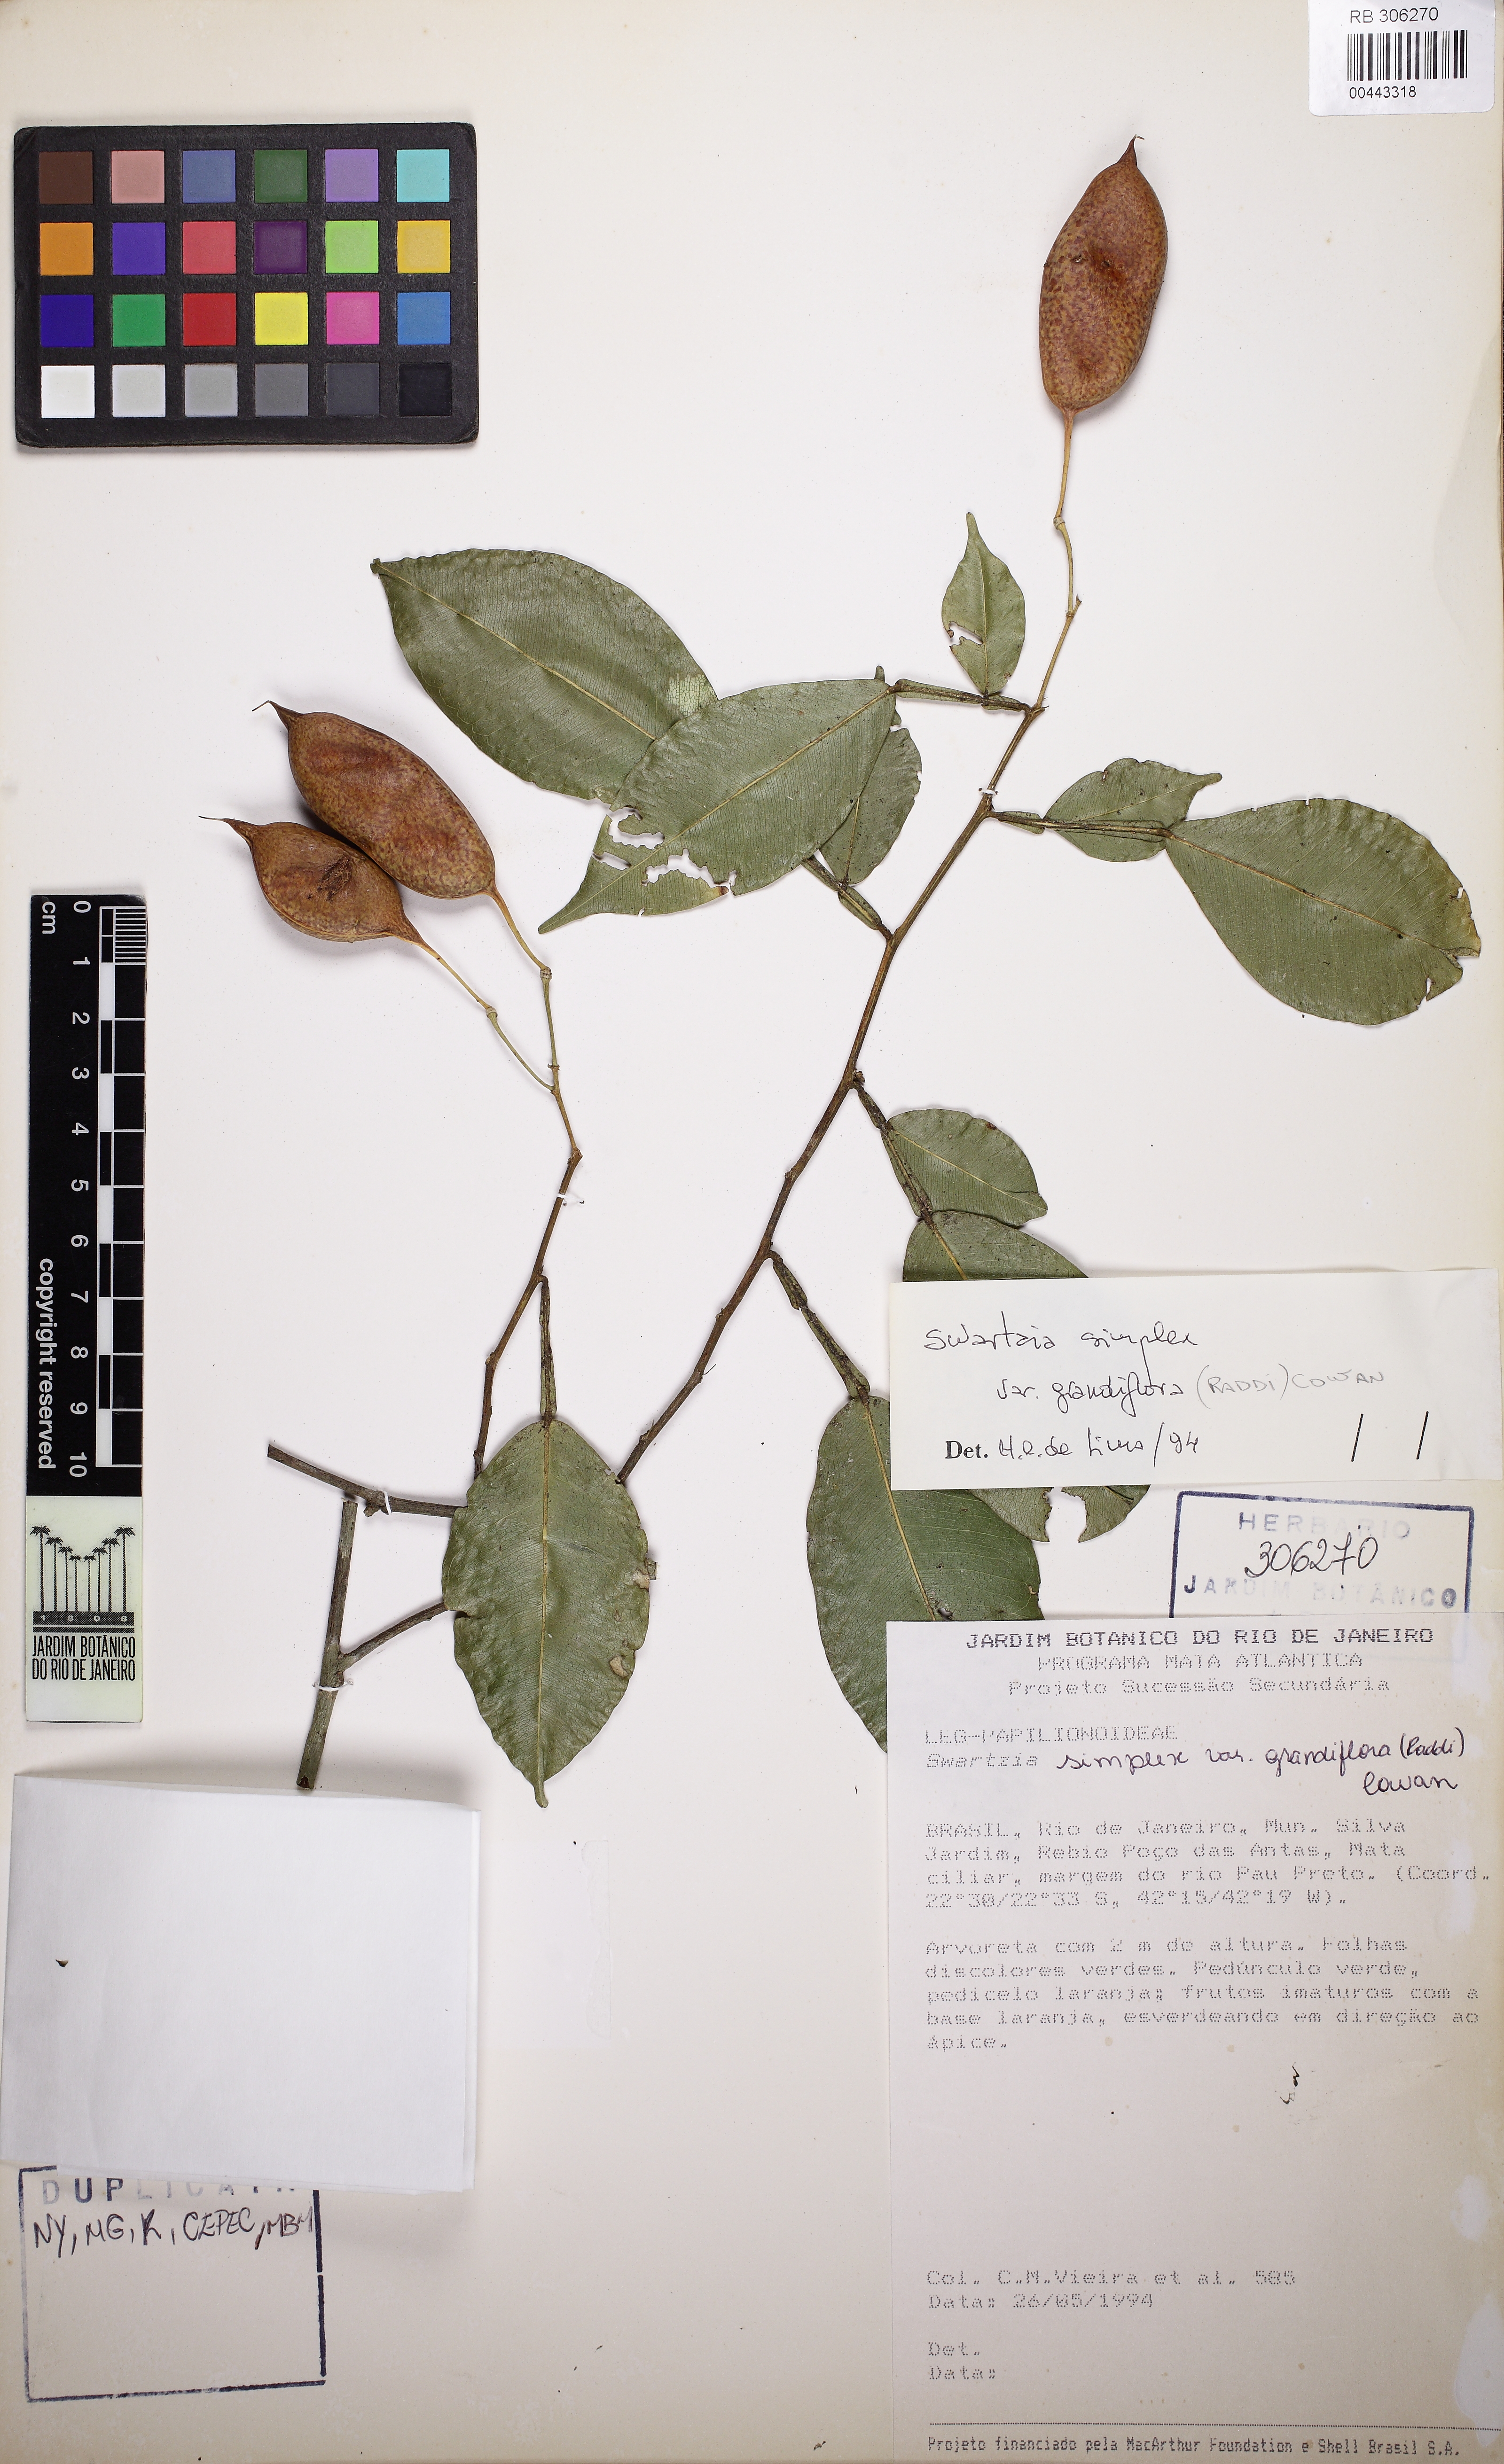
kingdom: Plantae
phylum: Tracheophyta
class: Magnoliopsida
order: Fabales
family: Fabaceae
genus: Swartzia
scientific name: Swartzia simplex
